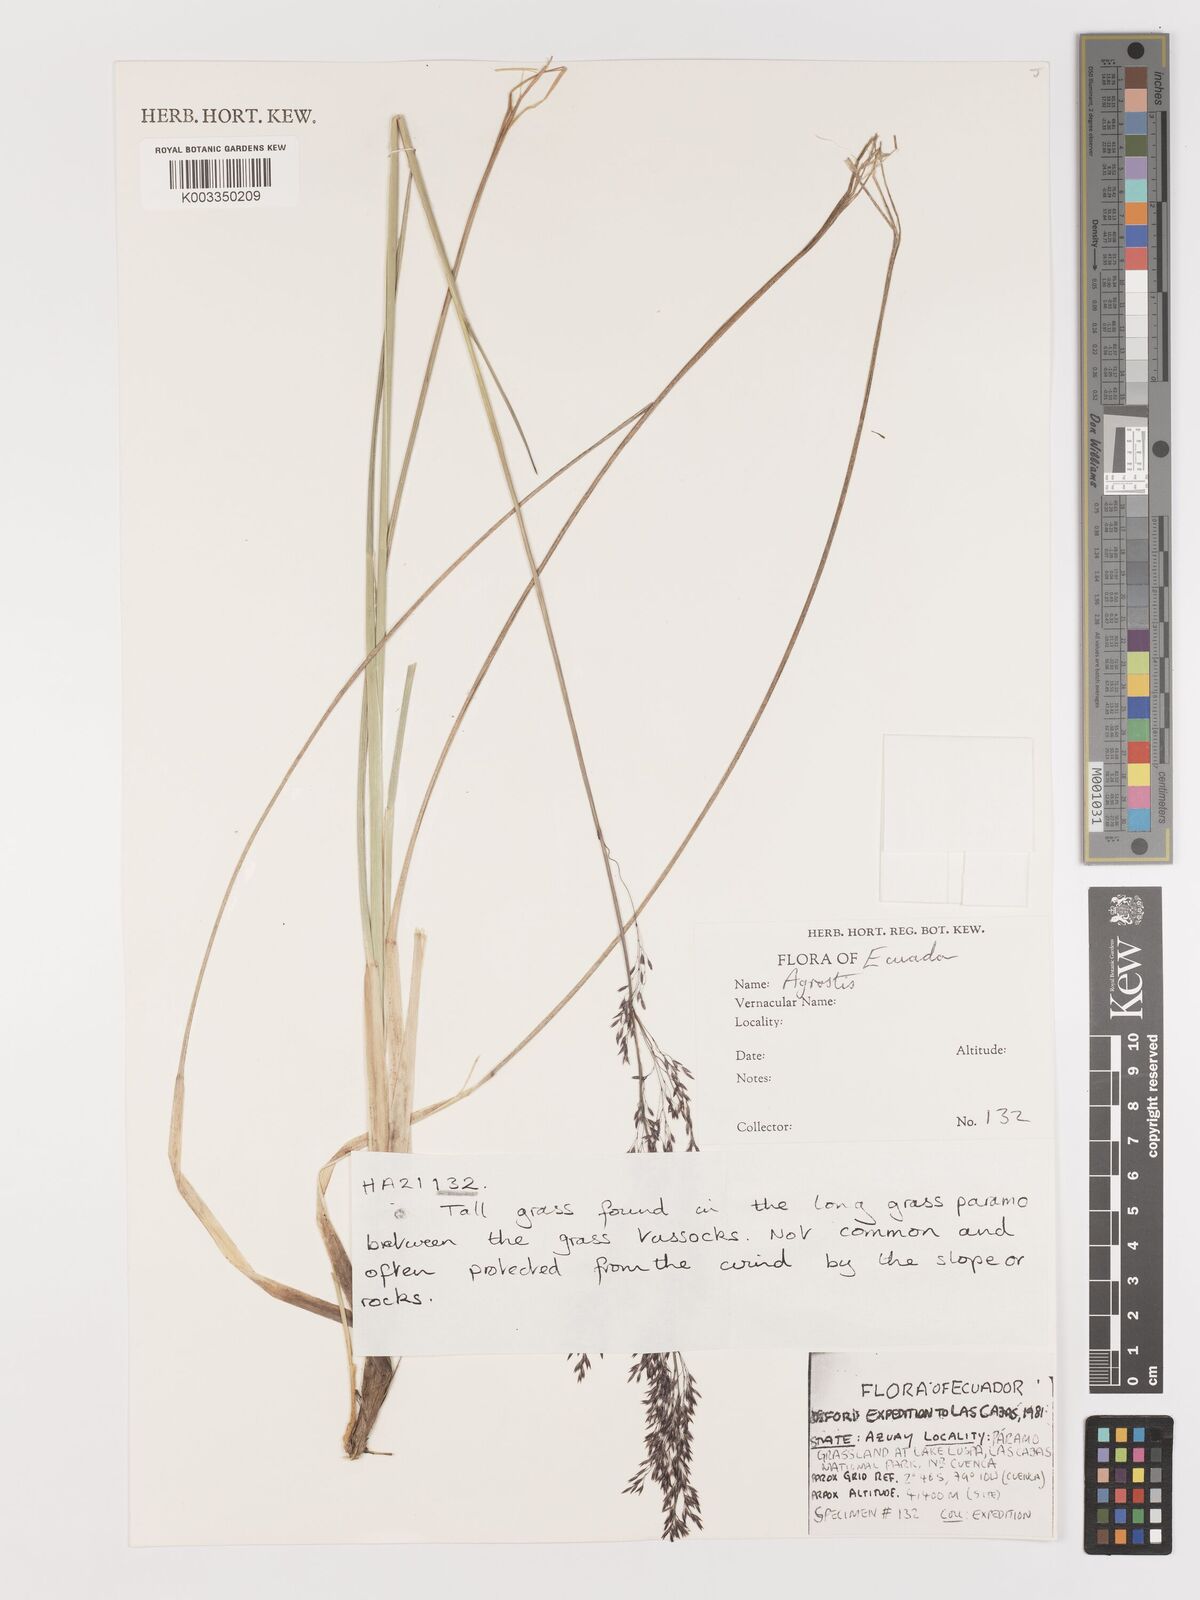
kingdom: Plantae
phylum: Tracheophyta
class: Liliopsida
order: Poales
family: Poaceae
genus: Agrostis
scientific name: Agrostis
